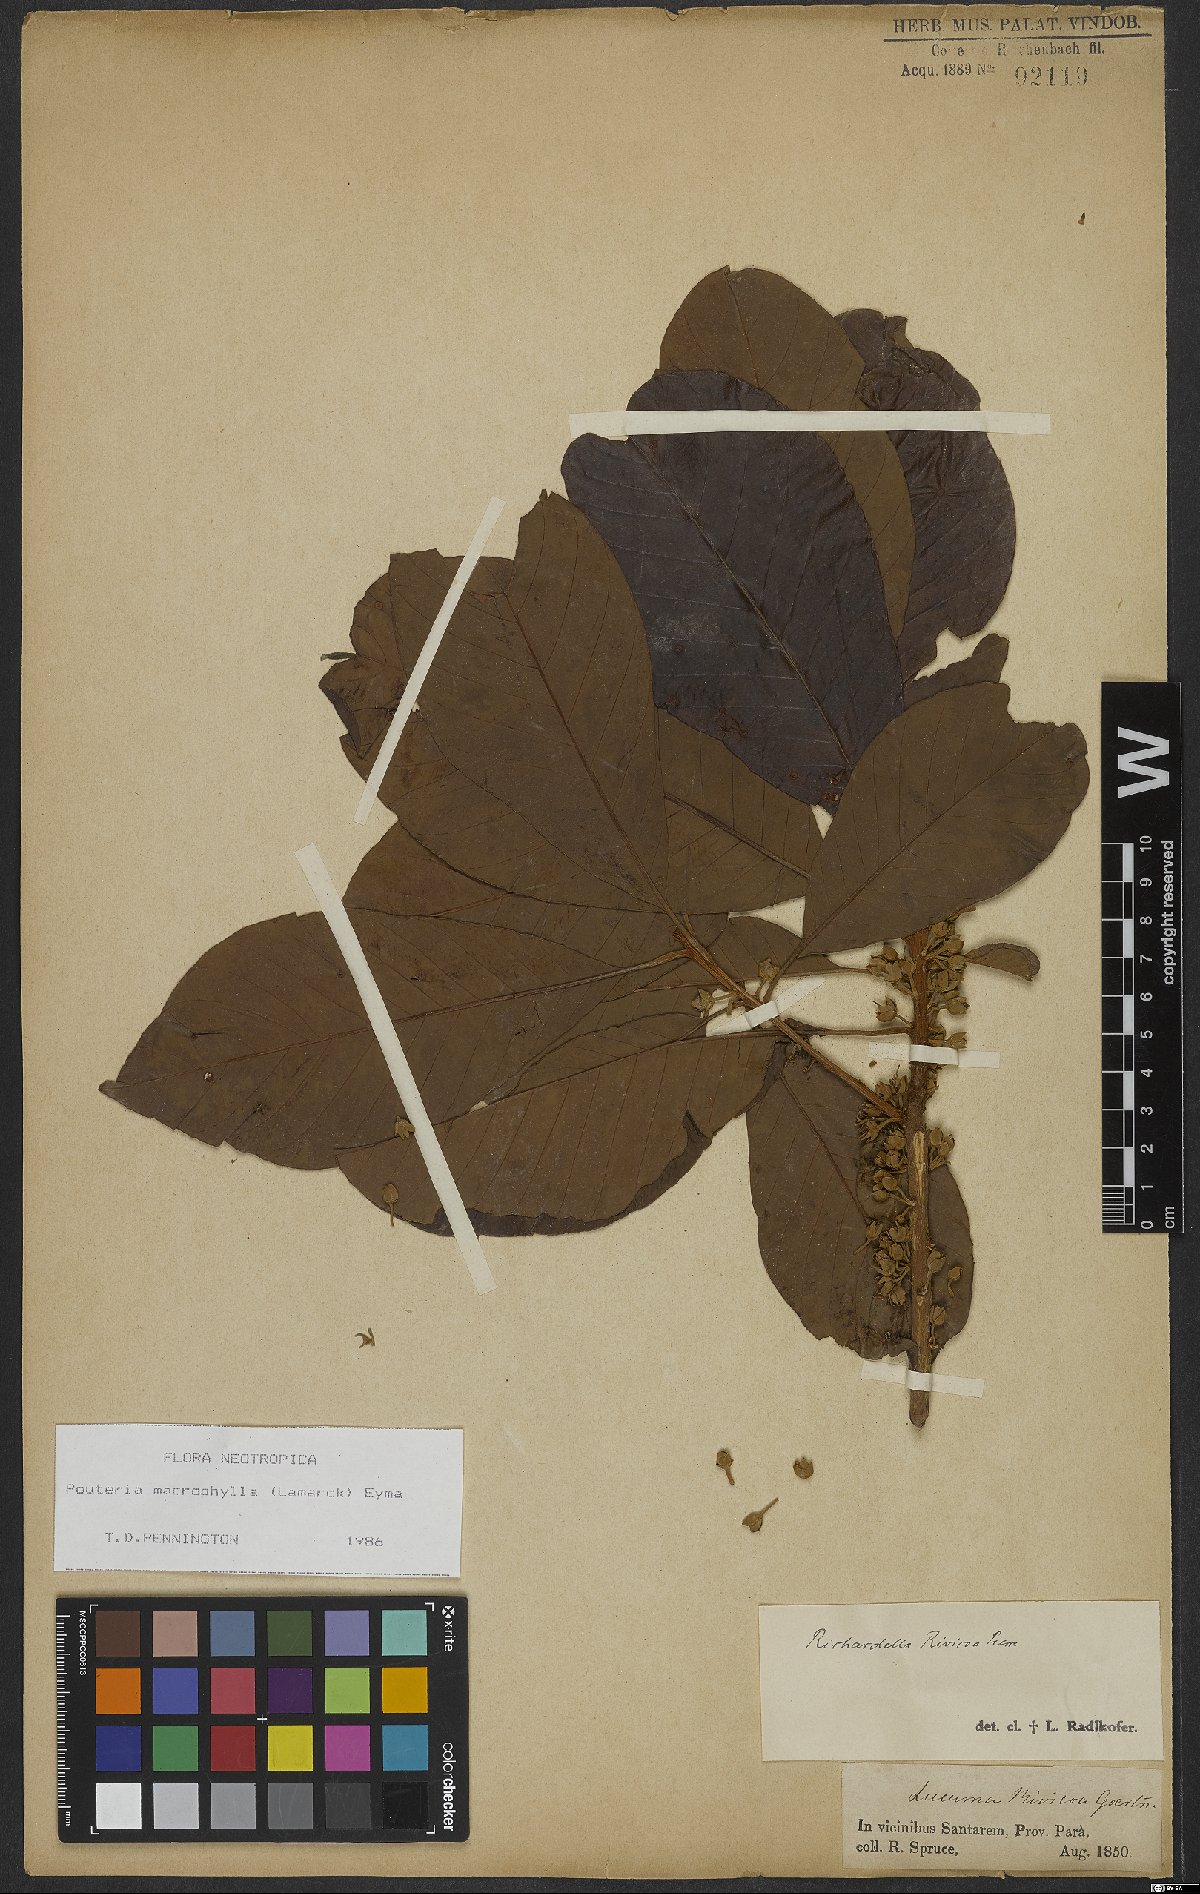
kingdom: Plantae
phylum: Tracheophyta
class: Magnoliopsida
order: Ericales
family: Sapotaceae
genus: Pouteria
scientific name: Pouteria macrophylla
